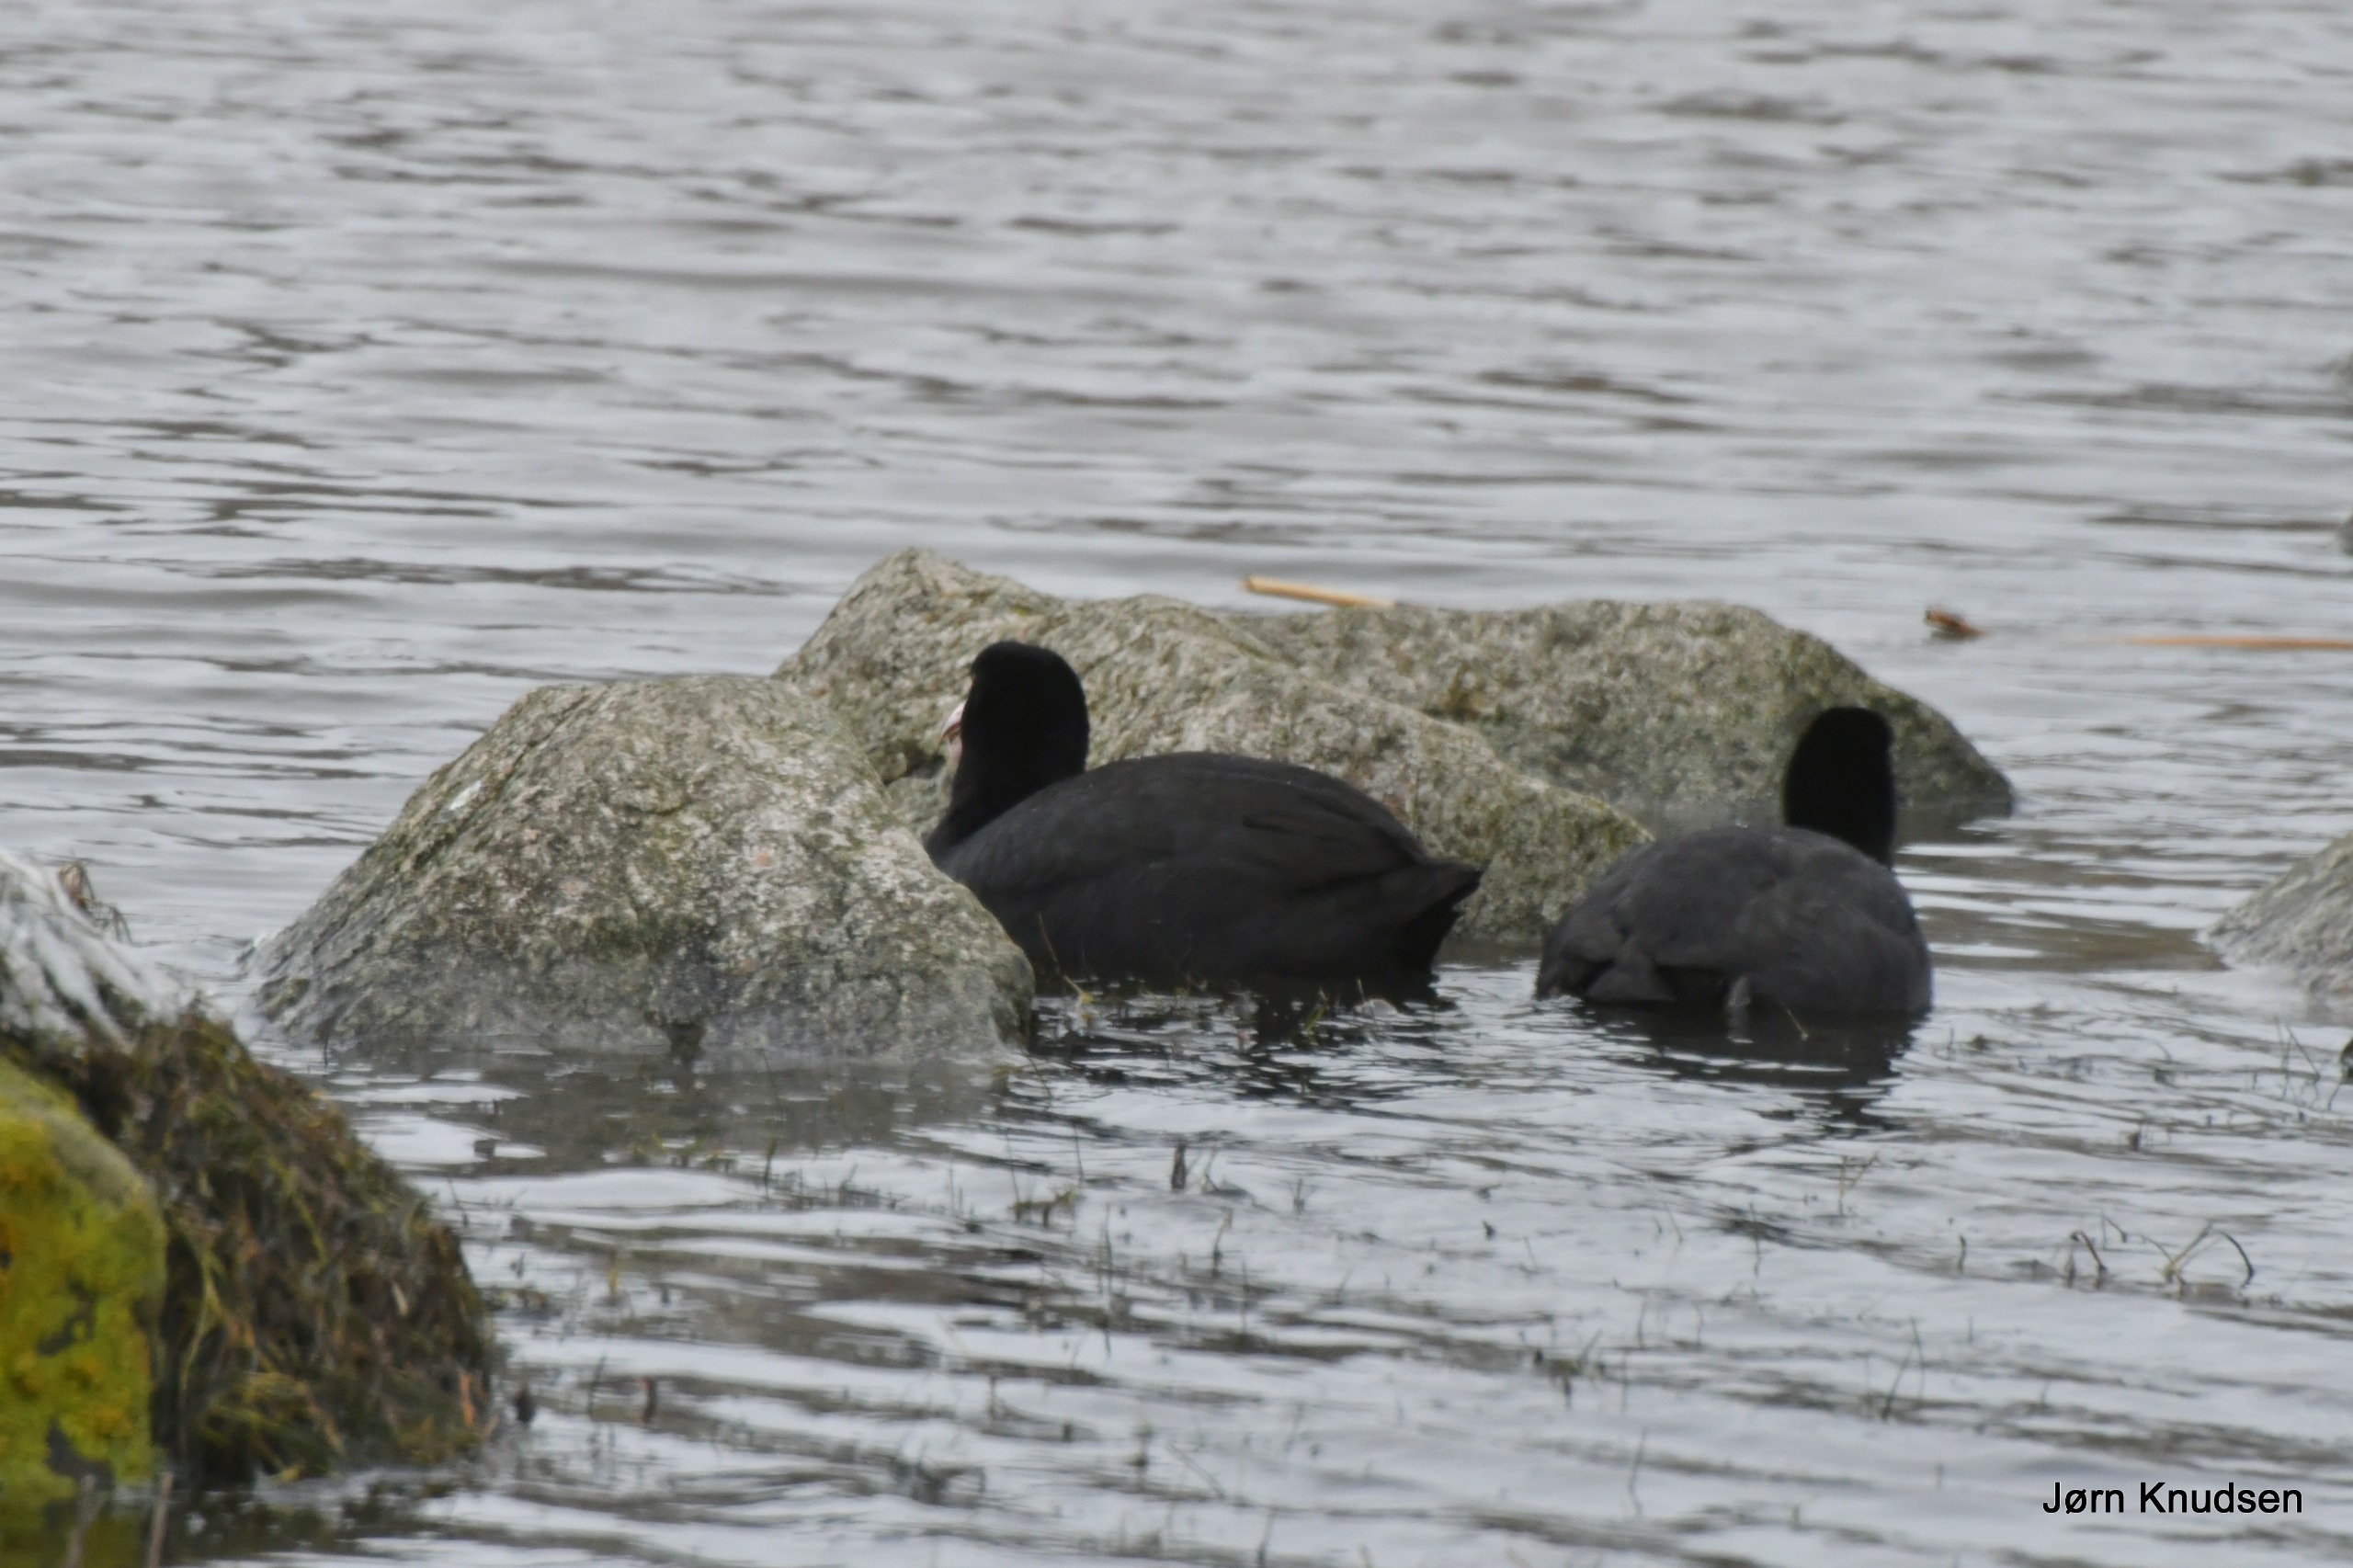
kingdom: Animalia
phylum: Chordata
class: Aves
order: Gruiformes
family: Rallidae
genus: Fulica
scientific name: Fulica atra
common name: Blishøne
